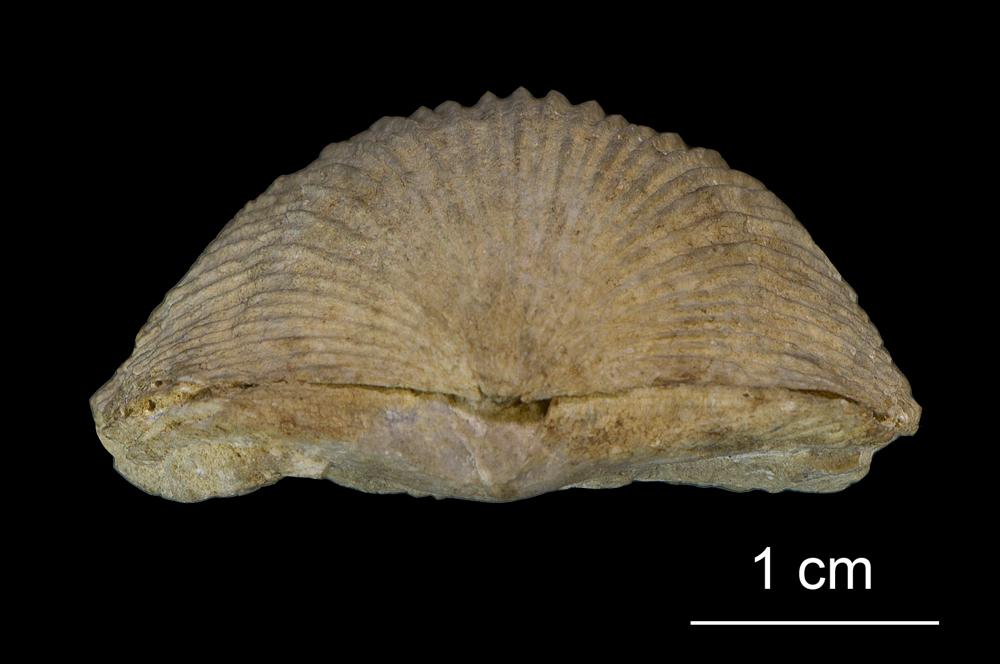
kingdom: Animalia
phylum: Brachiopoda
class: Rhynchonellata
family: Plaesiomyidae
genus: Plaesiomys
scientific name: Plaesiomys
